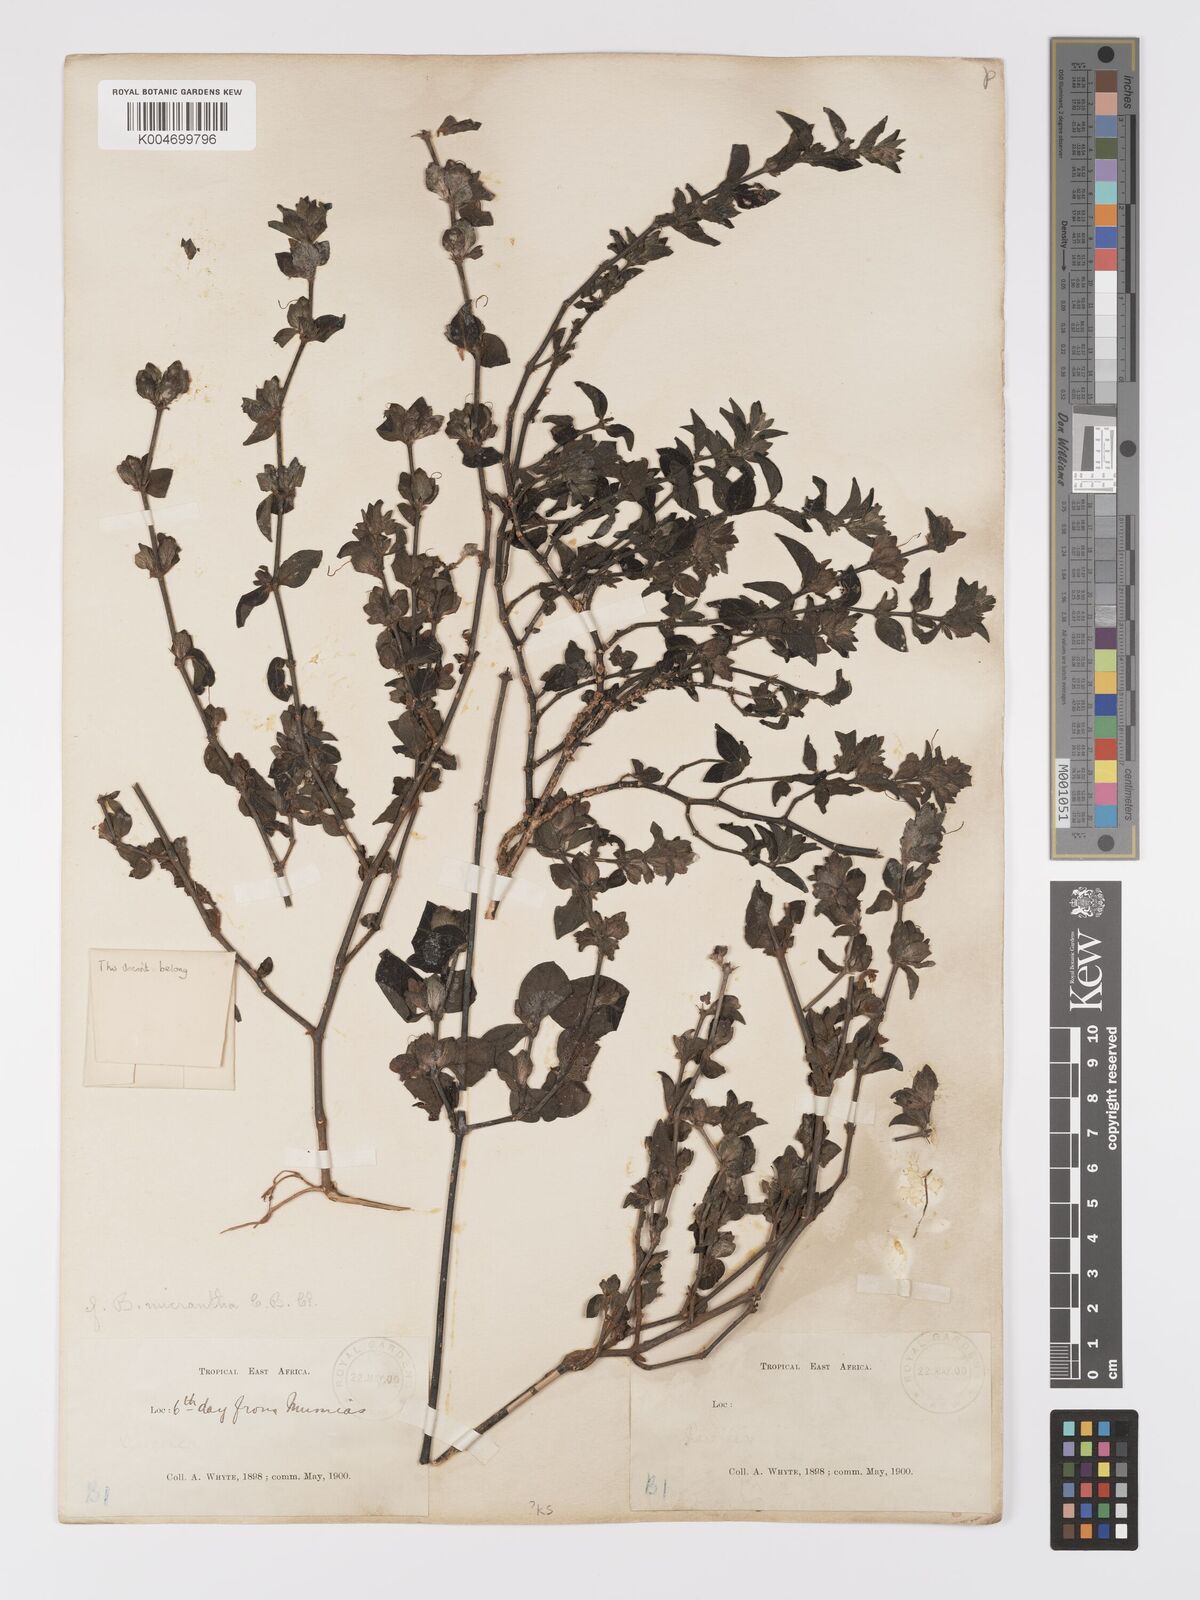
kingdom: Plantae
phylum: Tracheophyta
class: Magnoliopsida
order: Lamiales
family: Acanthaceae
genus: Barleria
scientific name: Barleria ventricosa
